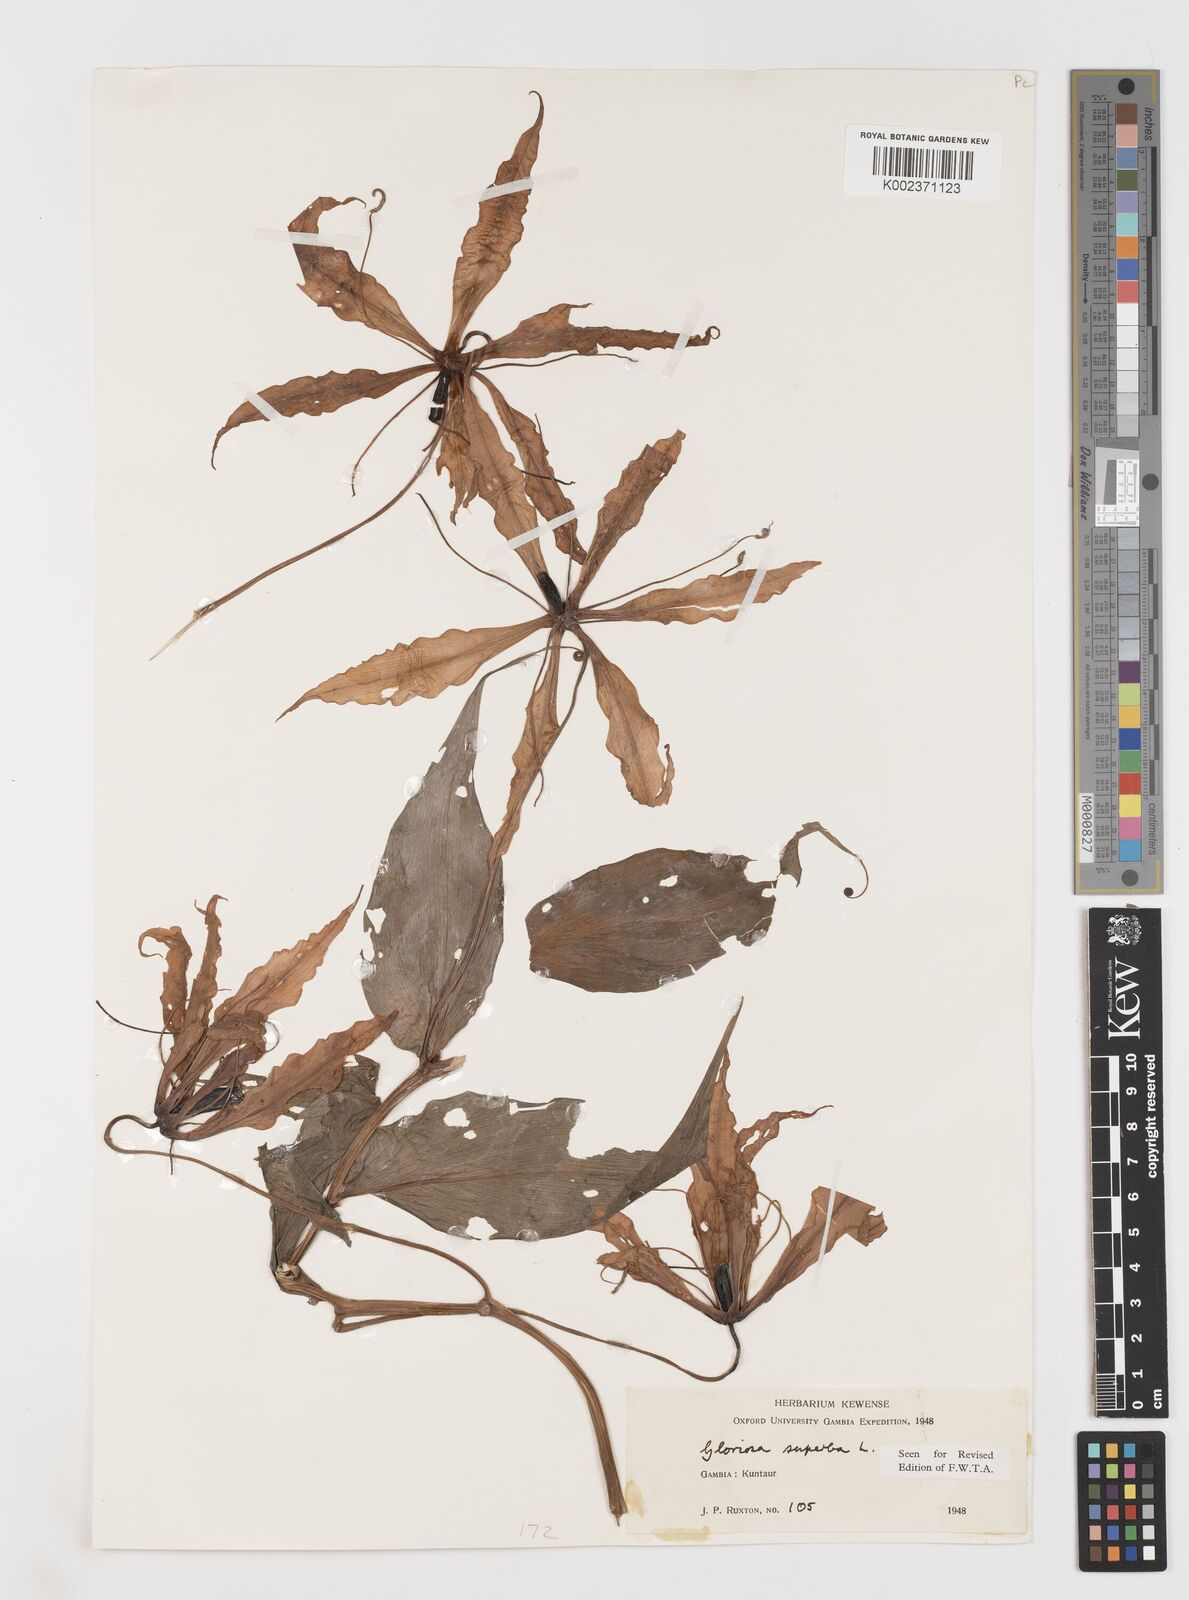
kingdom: Plantae
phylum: Tracheophyta
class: Liliopsida
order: Liliales
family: Colchicaceae
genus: Gloriosa
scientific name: Gloriosa simplex
